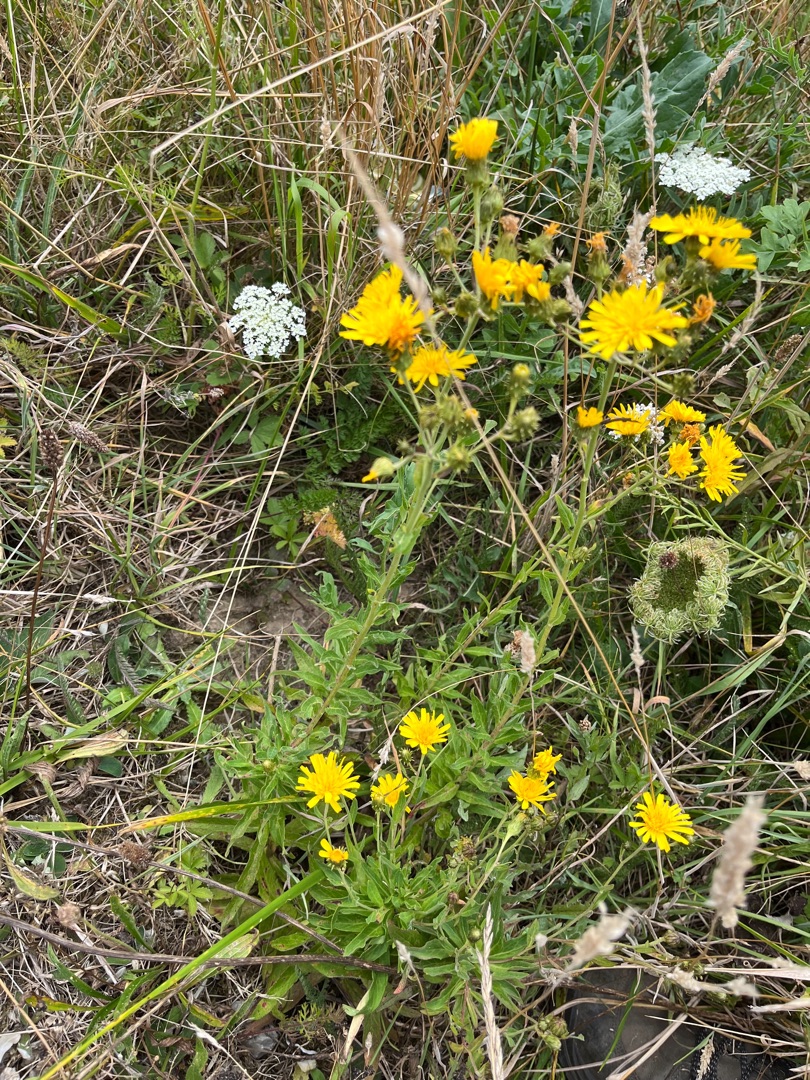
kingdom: Plantae
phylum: Tracheophyta
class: Magnoliopsida
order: Asterales
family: Asteraceae
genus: Picris
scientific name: Picris hieracioides
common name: Ru bittermælk
